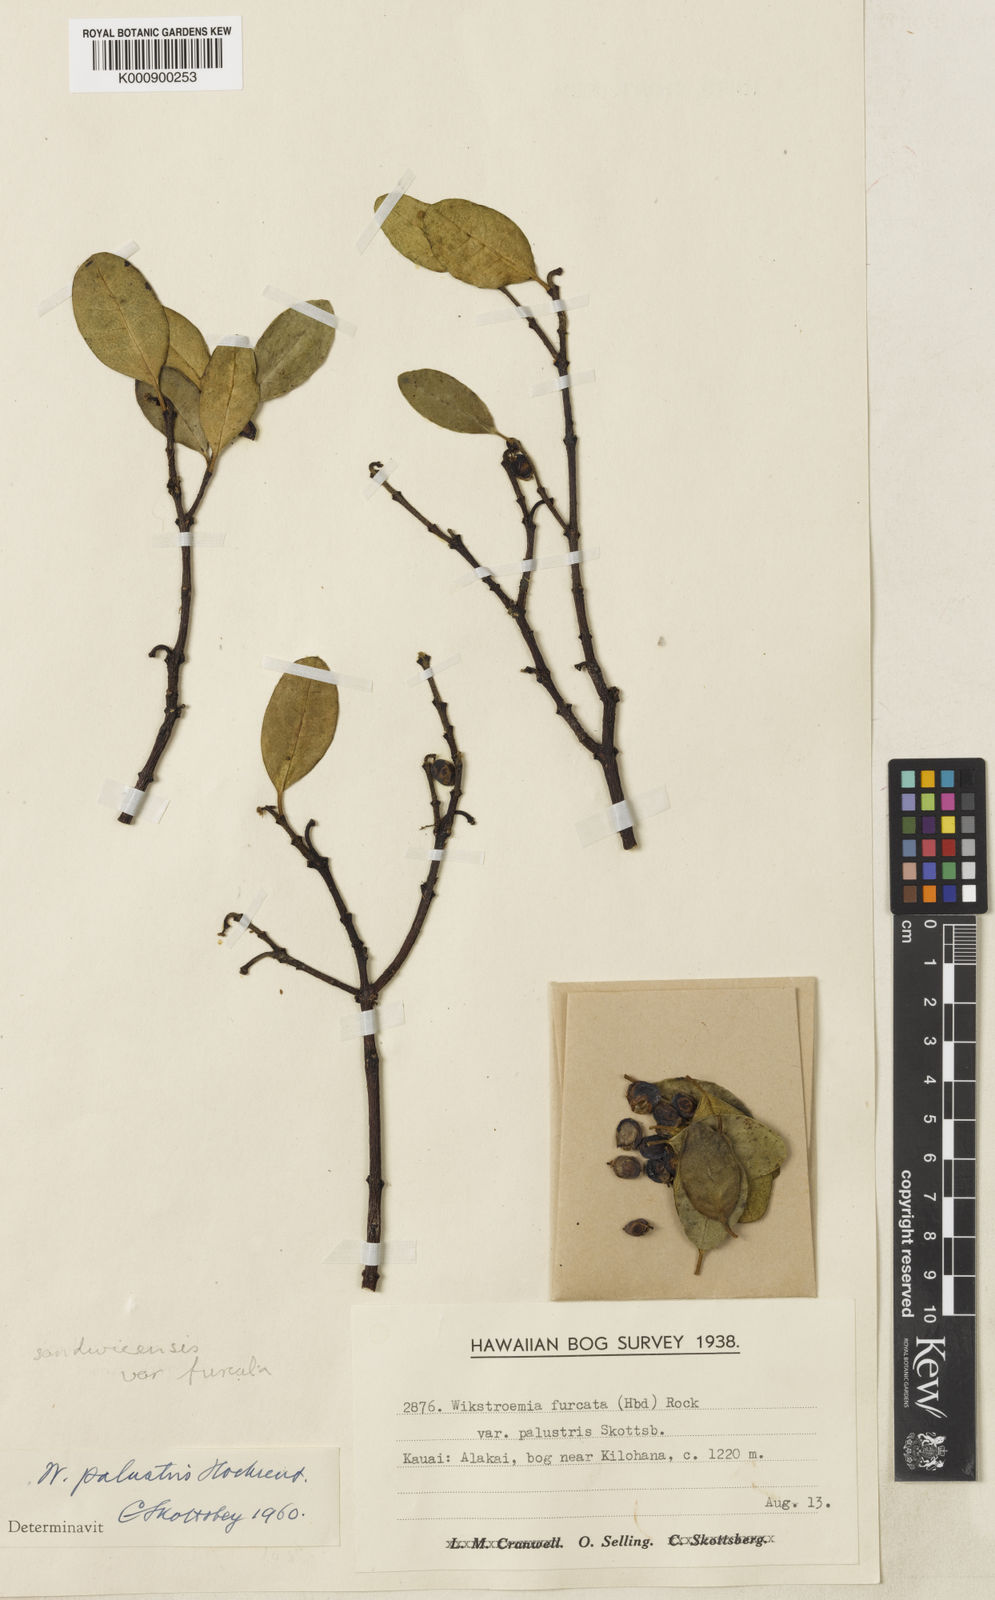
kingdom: Plantae
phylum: Tracheophyta
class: Magnoliopsida
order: Malvales
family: Thymelaeaceae
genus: Wikstroemia
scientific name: Wikstroemia oahuensis
